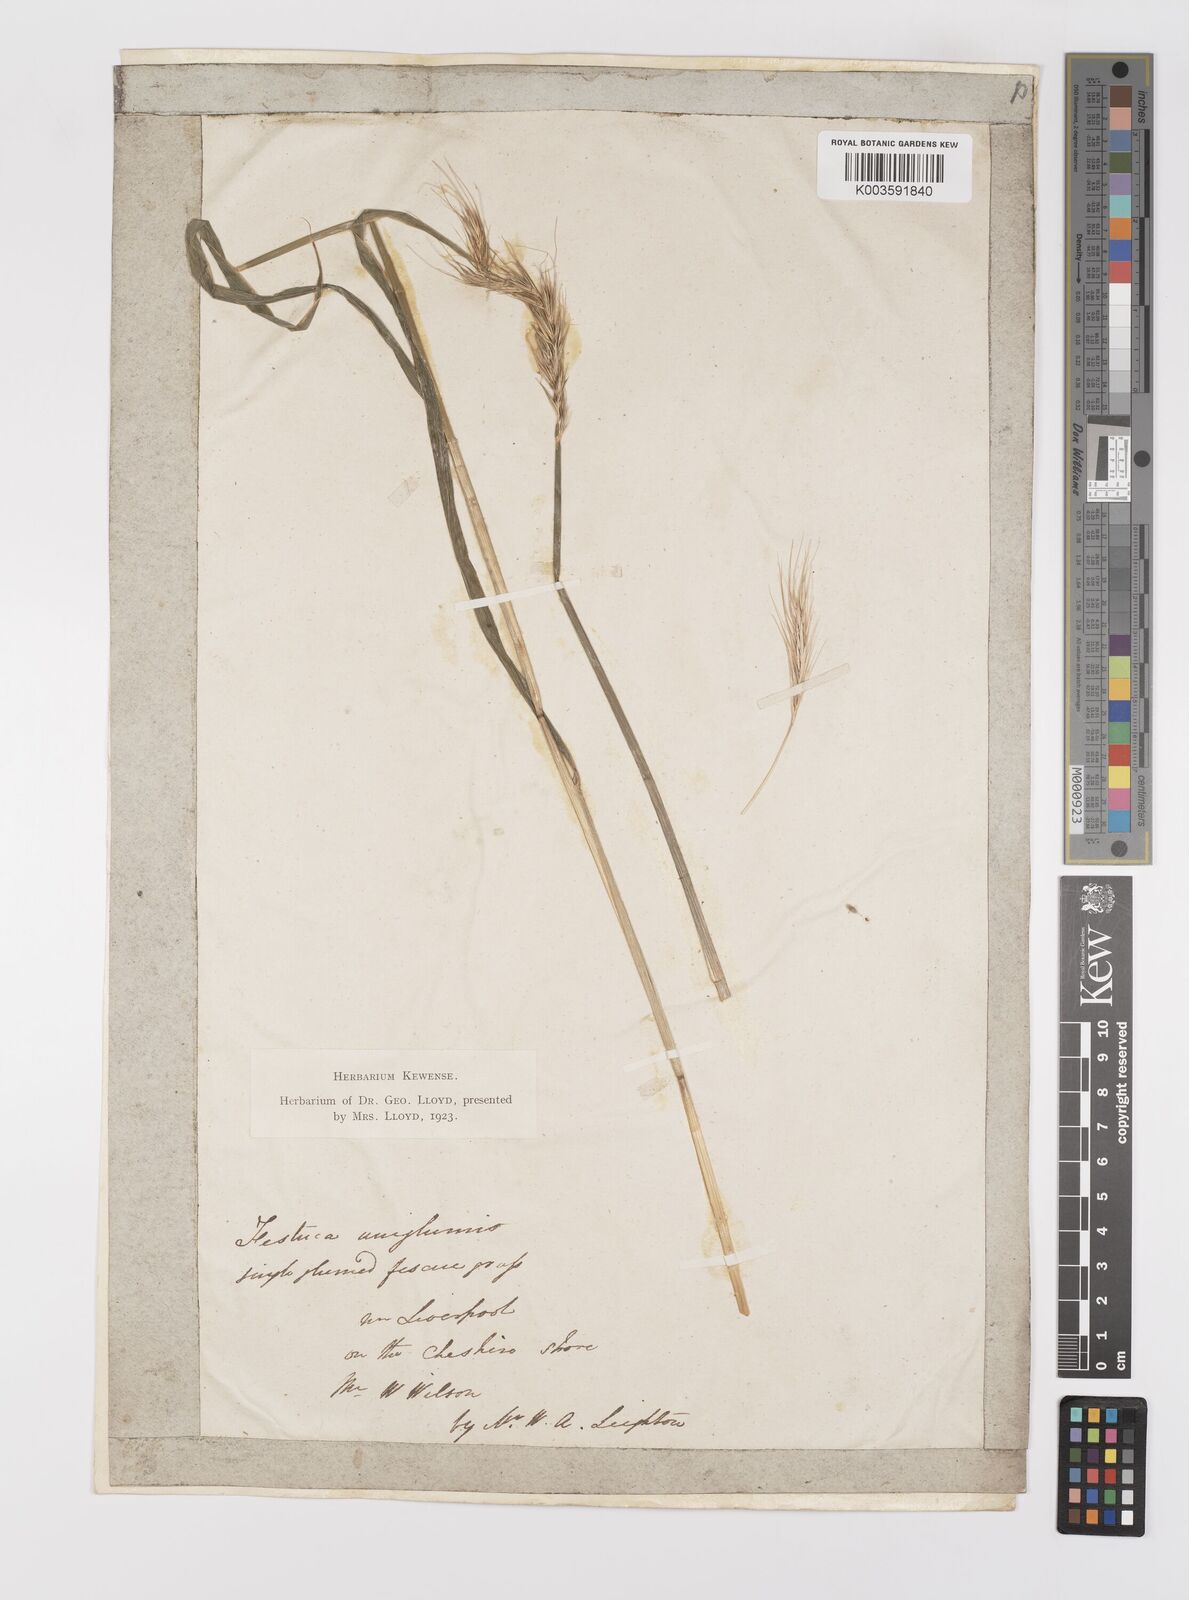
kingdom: Plantae
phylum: Tracheophyta
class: Liliopsida
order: Poales
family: Poaceae
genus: Hordelymus
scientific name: Hordelymus europaeus
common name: Wood-barley
